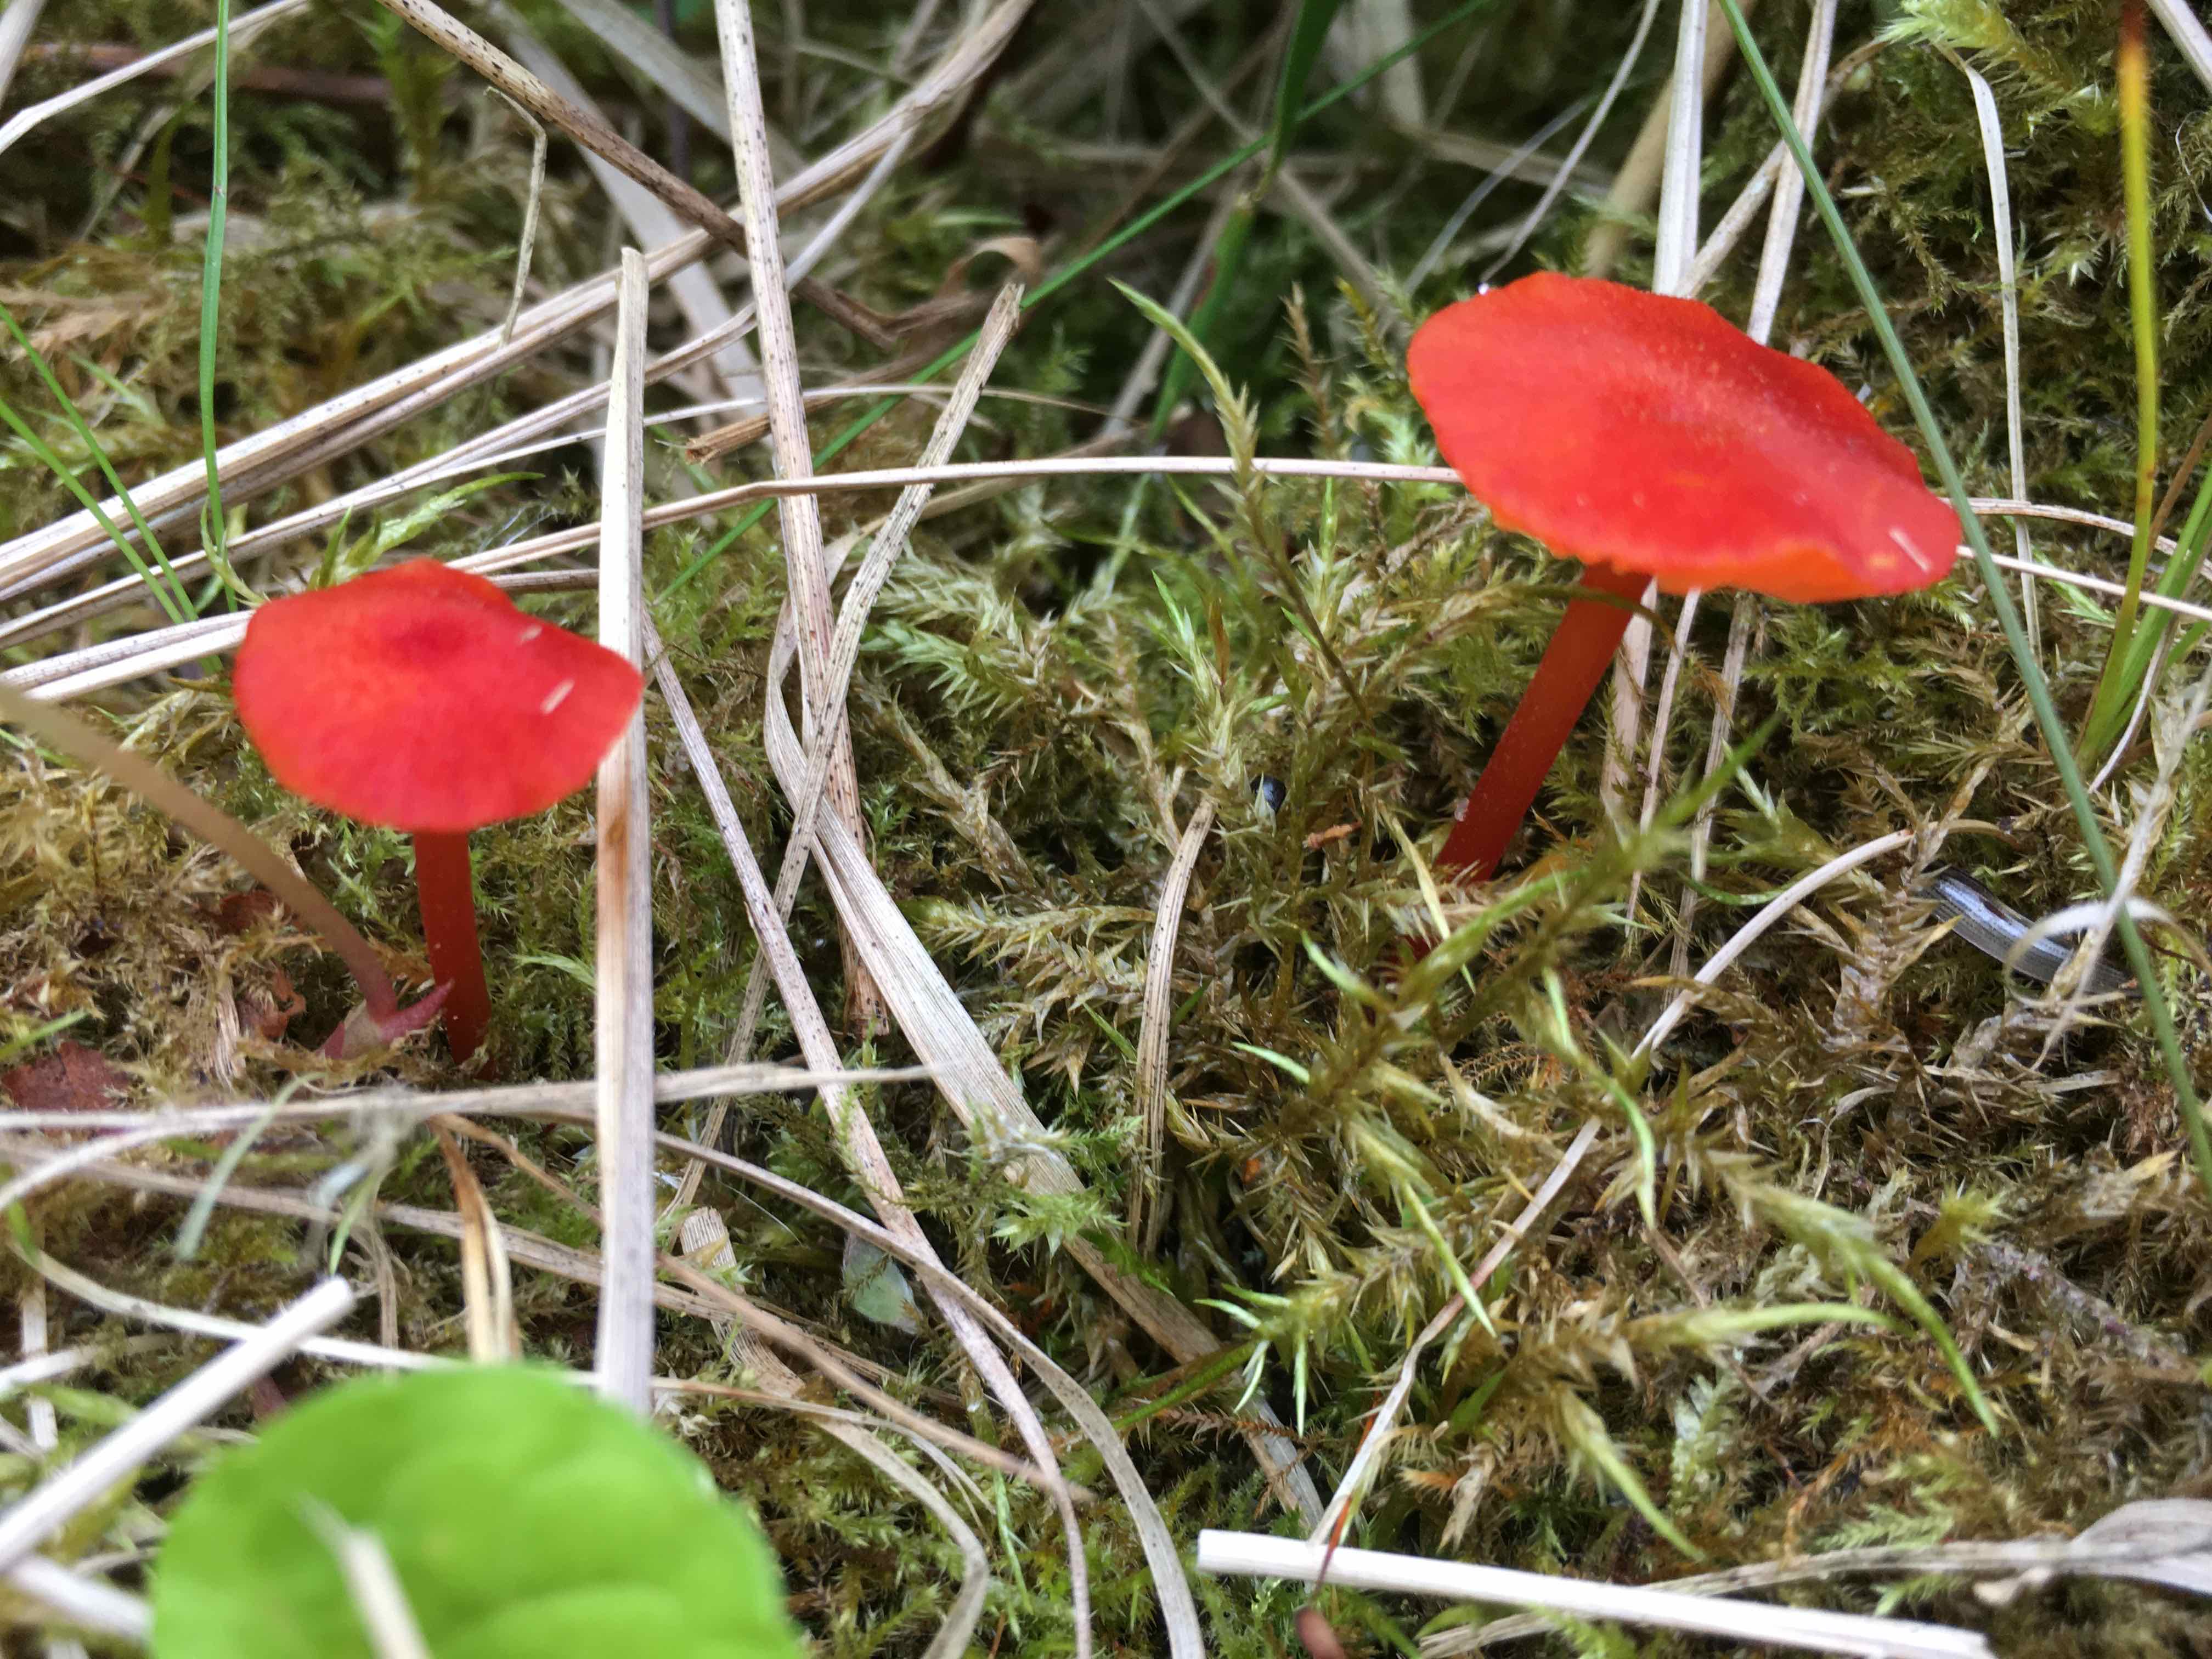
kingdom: Fungi
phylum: Basidiomycota
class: Agaricomycetes
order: Agaricales
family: Hygrophoraceae
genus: Hygrocybe
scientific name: Hygrocybe miniata
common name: mønje-vokshat
